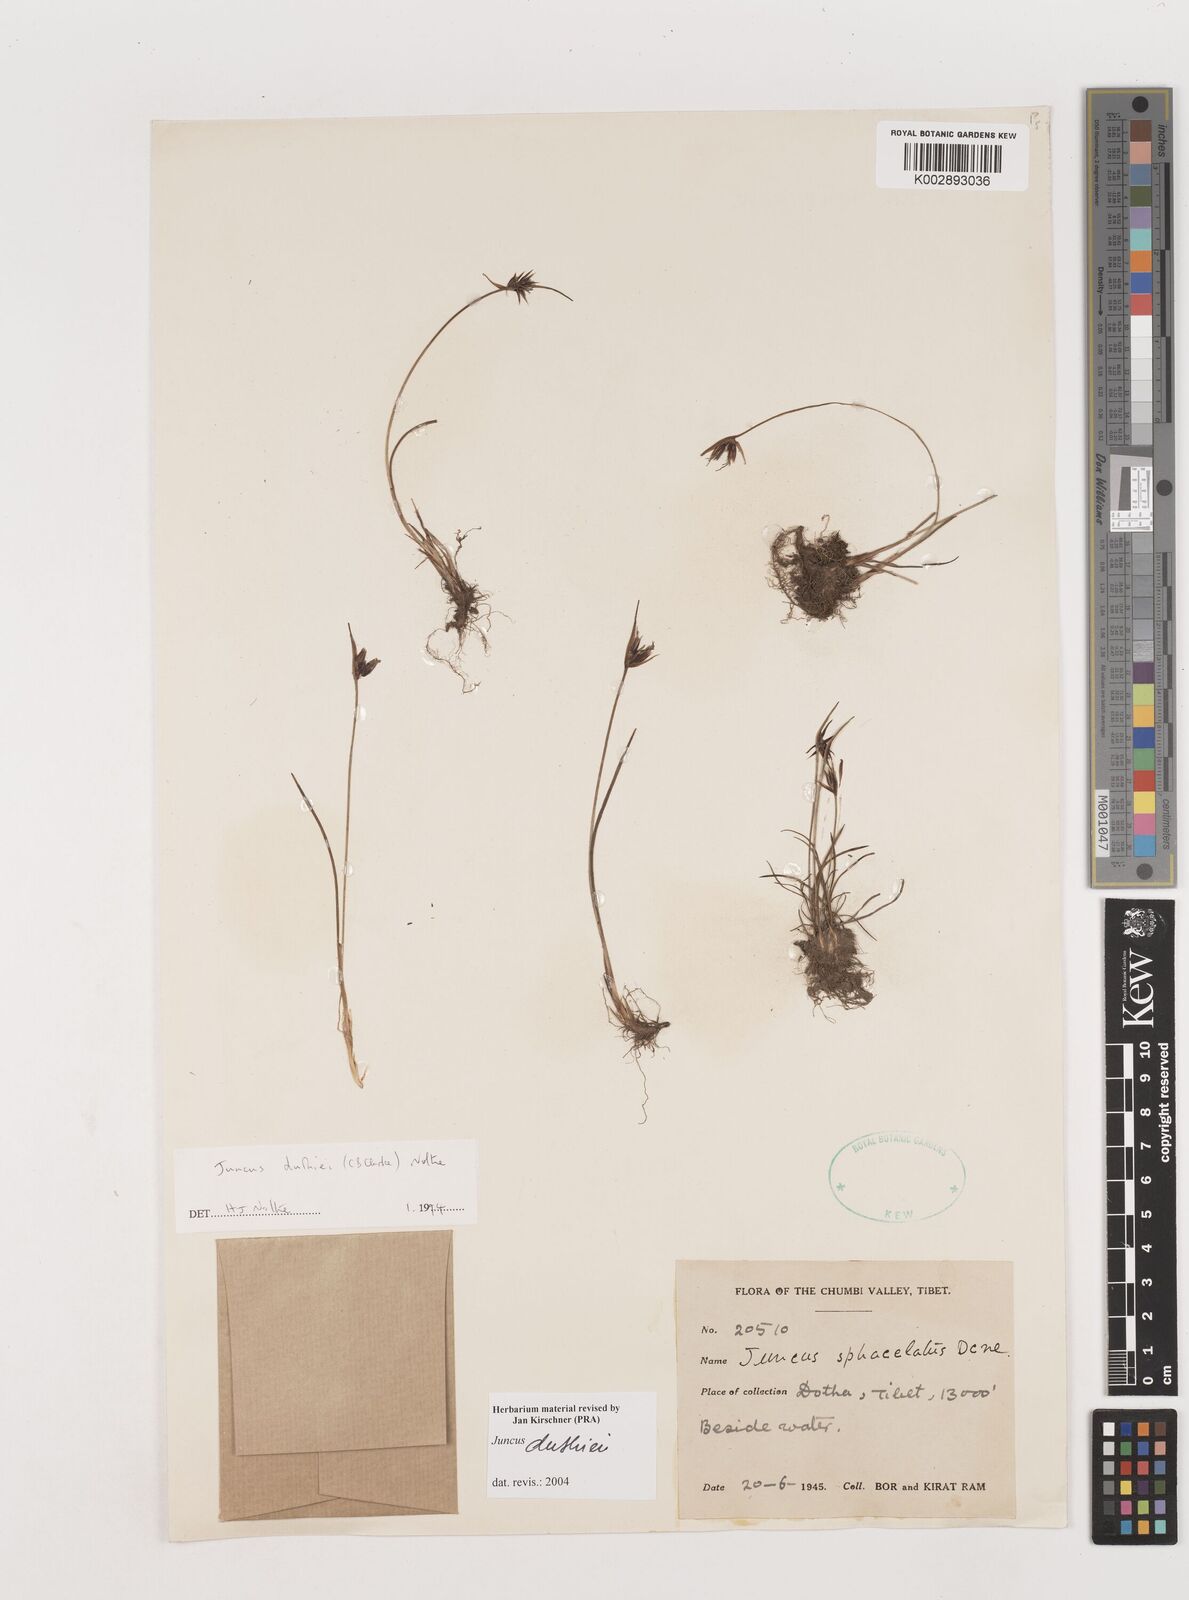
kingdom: Plantae
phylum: Tracheophyta
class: Liliopsida
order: Poales
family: Juncaceae
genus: Juncus
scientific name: Juncus duthiei
